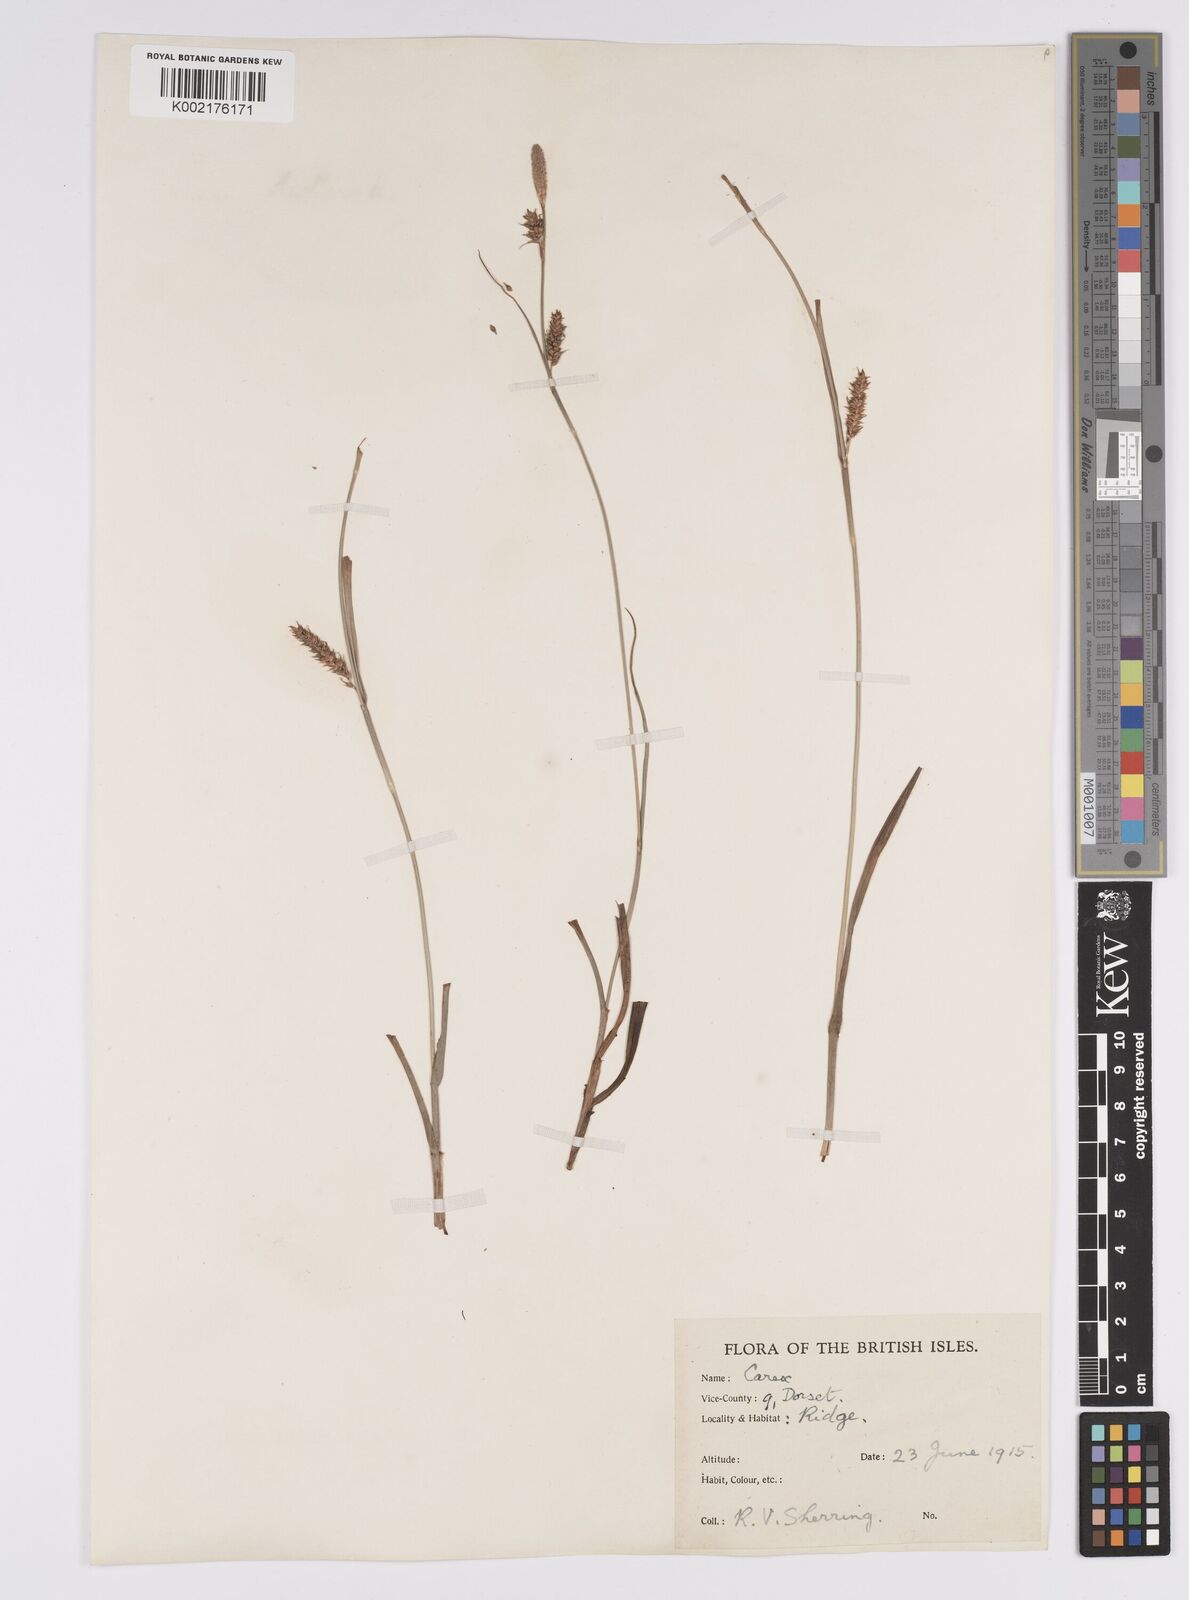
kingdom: Plantae
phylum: Tracheophyta
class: Liliopsida
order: Poales
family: Cyperaceae
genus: Carex
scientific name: Carex distans
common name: Distant sedge
